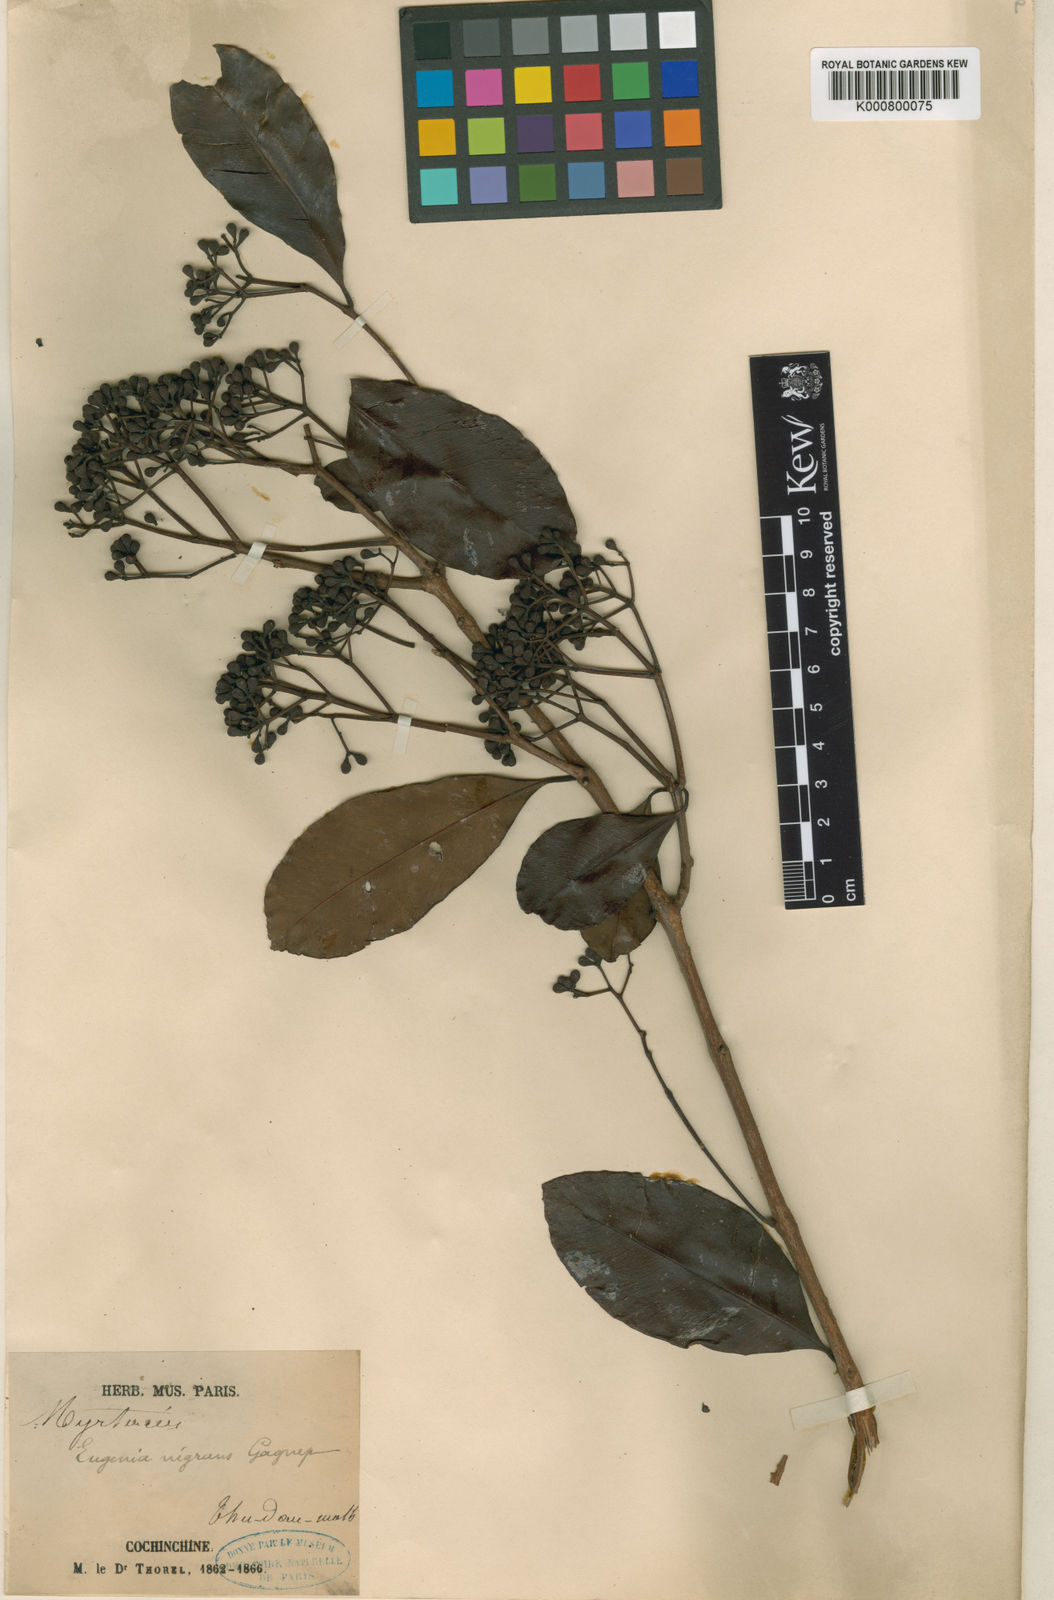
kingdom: Plantae
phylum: Tracheophyta
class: Magnoliopsida
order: Myrtales
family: Myrtaceae
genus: Syzygium
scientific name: Syzygium nigrans
